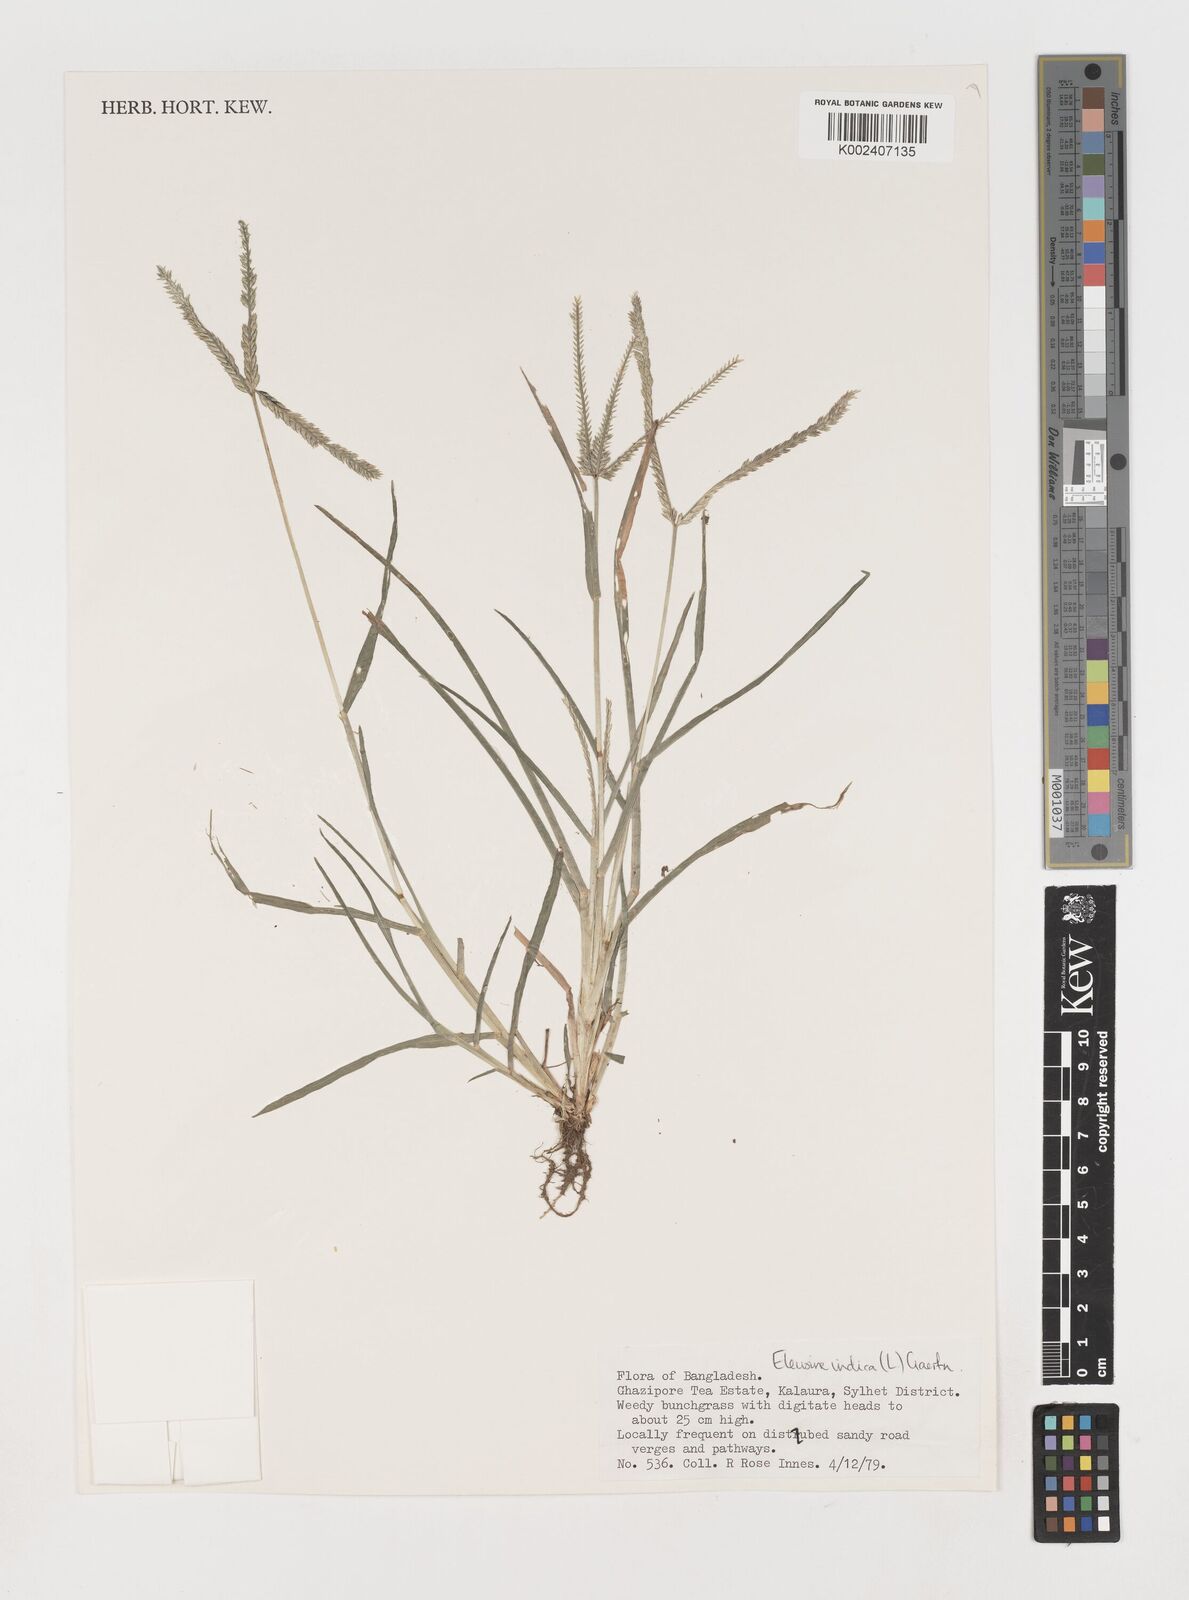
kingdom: Plantae
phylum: Tracheophyta
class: Liliopsida
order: Poales
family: Poaceae
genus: Eleusine
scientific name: Eleusine indica
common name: Yard-grass
